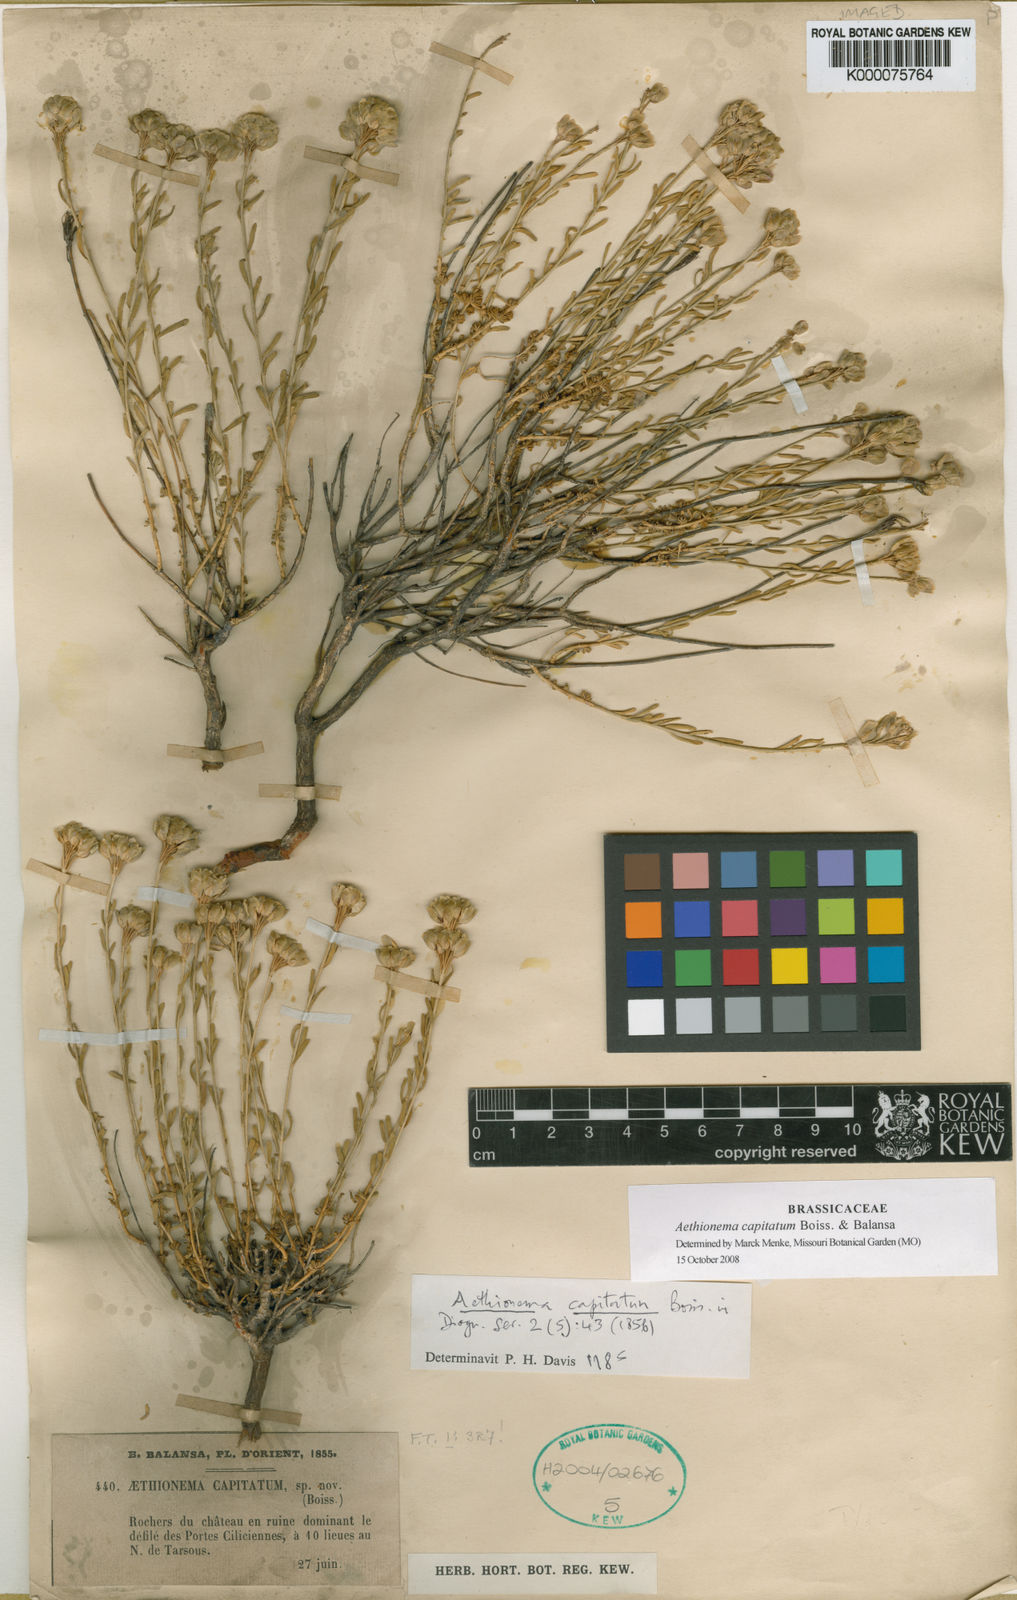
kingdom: Plantae
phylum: Tracheophyta
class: Magnoliopsida
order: Brassicales
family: Brassicaceae
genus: Aethionema
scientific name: Aethionema capitatum
